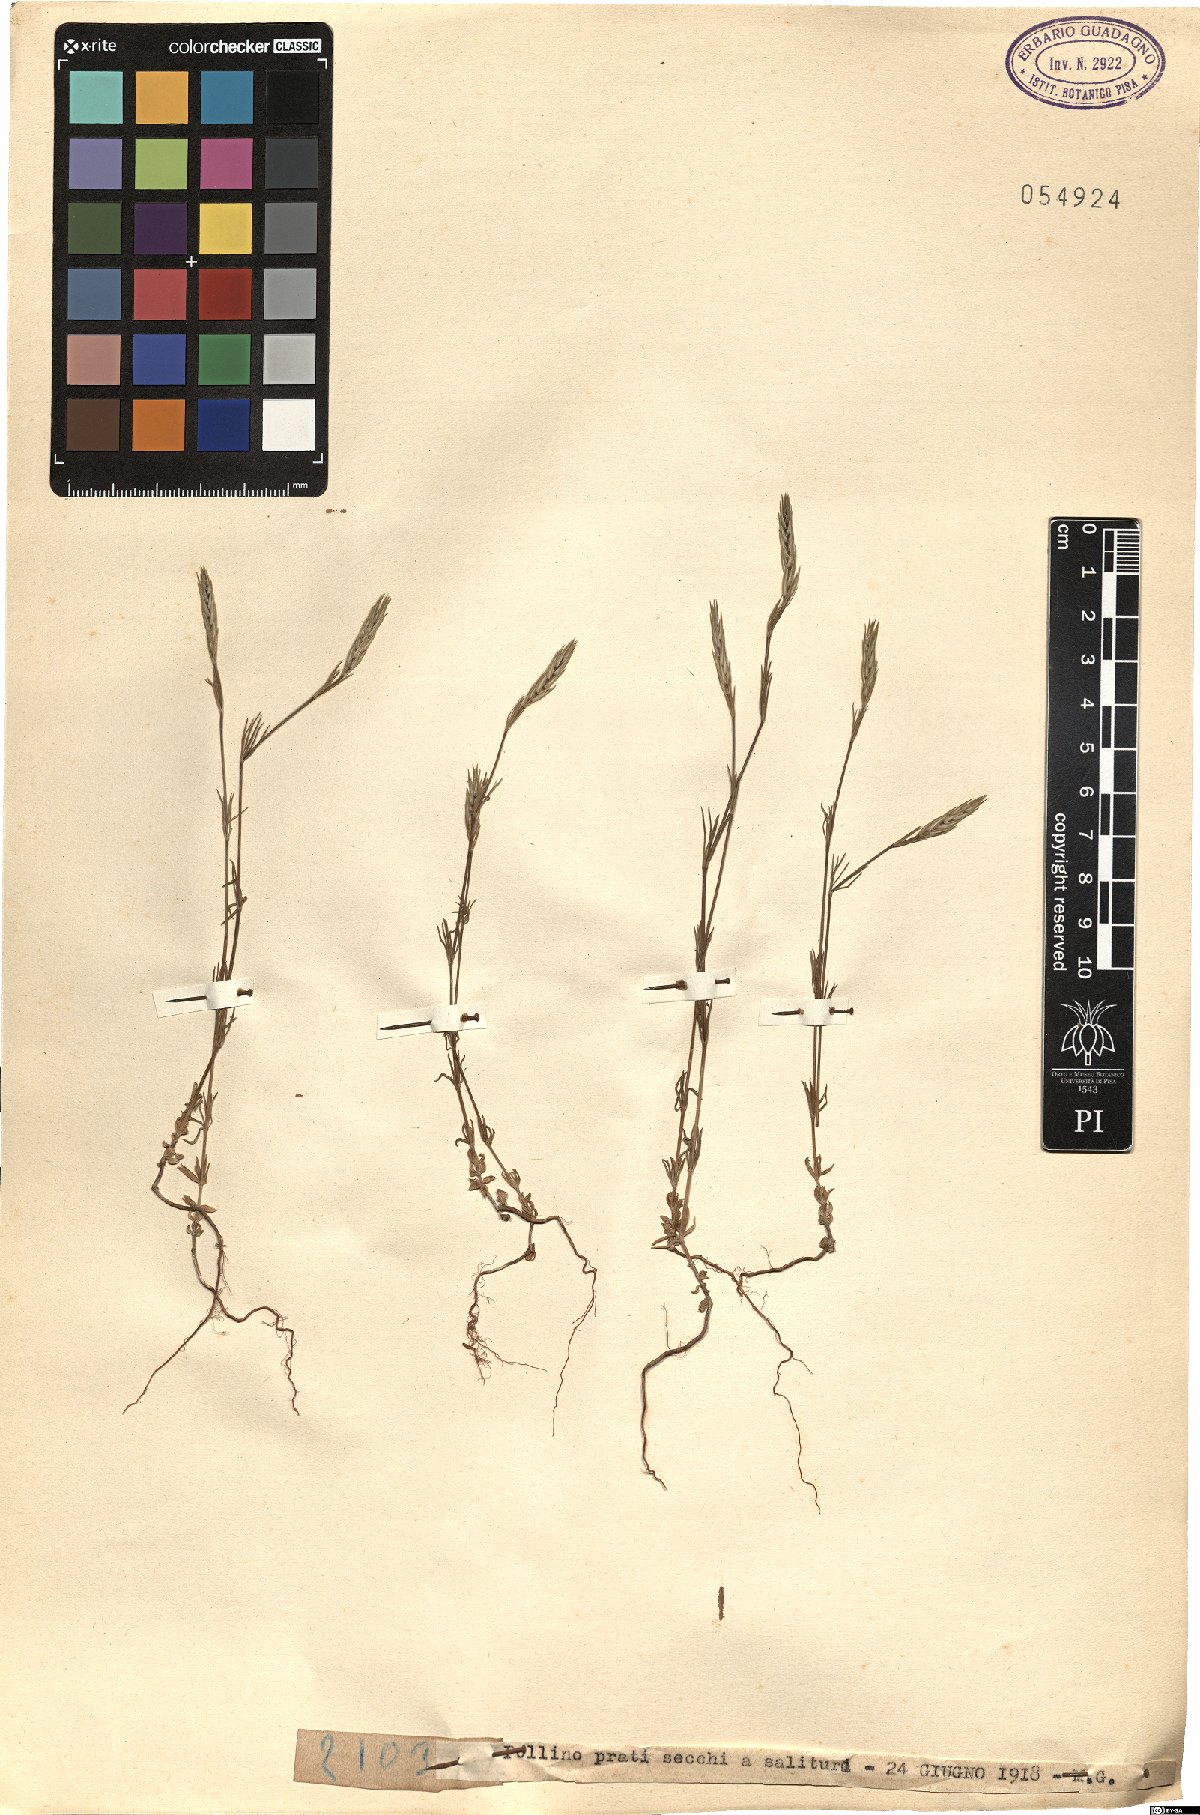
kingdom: Plantae
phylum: Tracheophyta
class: Magnoliopsida
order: Gentianales
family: Rubiaceae
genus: Crucianella
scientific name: Crucianella
